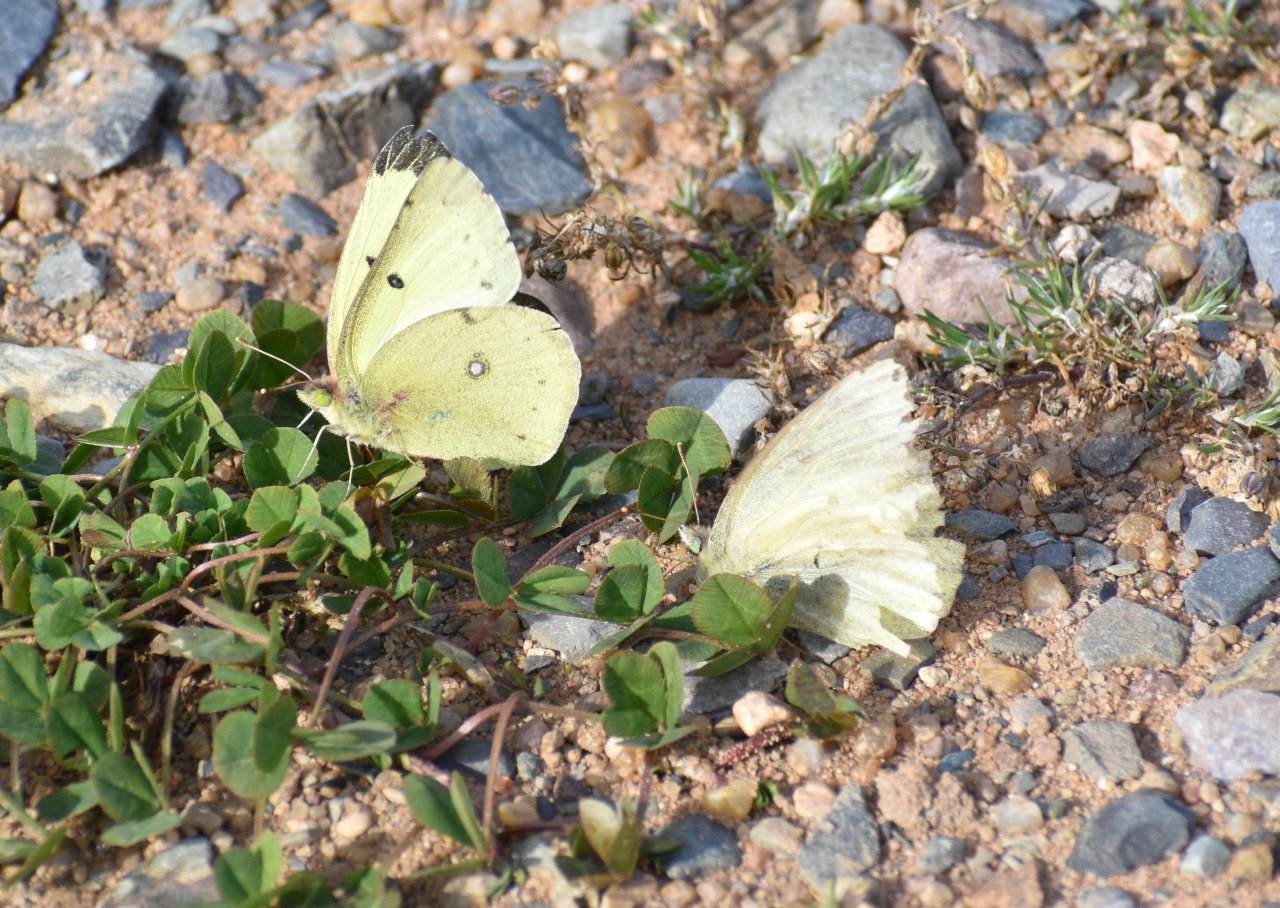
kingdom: Animalia
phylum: Arthropoda
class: Insecta
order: Lepidoptera
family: Pieridae
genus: Colias
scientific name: Colias philodice
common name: Clouded Sulphur
